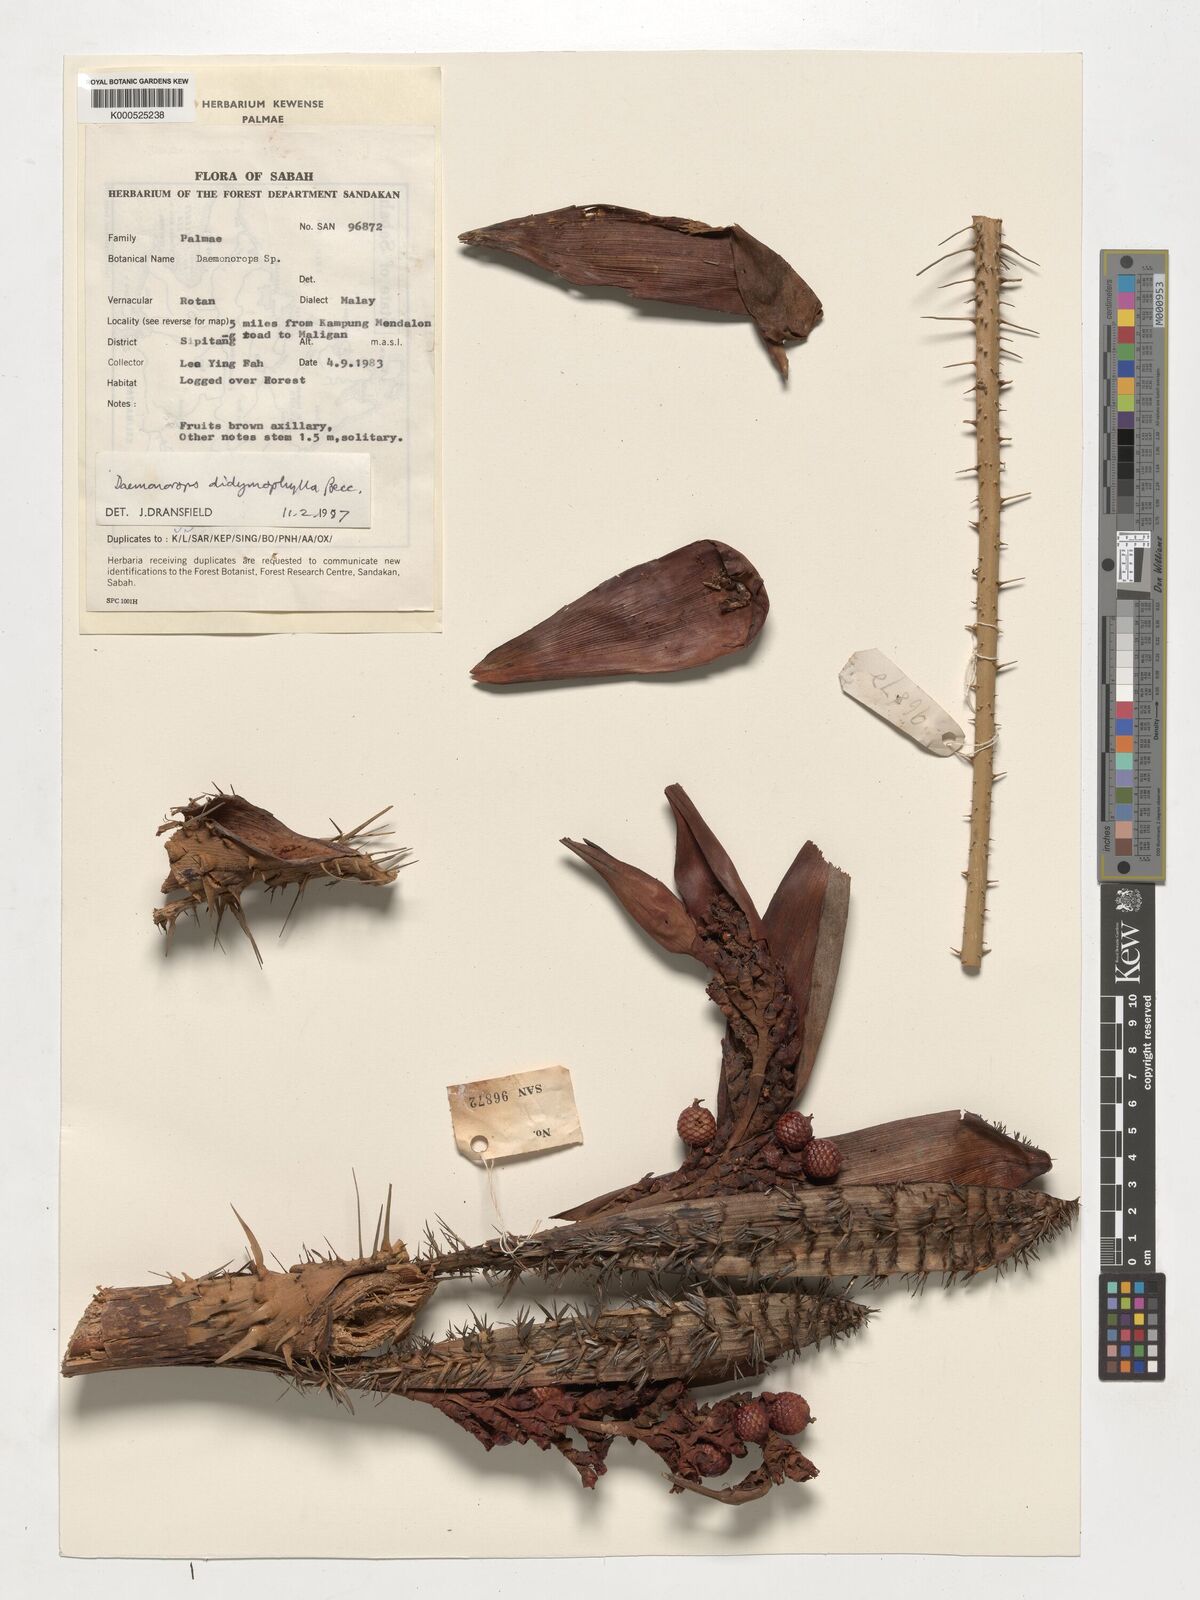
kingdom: Plantae
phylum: Tracheophyta
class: Liliopsida
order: Arecales
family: Arecaceae
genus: Calamus
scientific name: Calamus gracilipes
